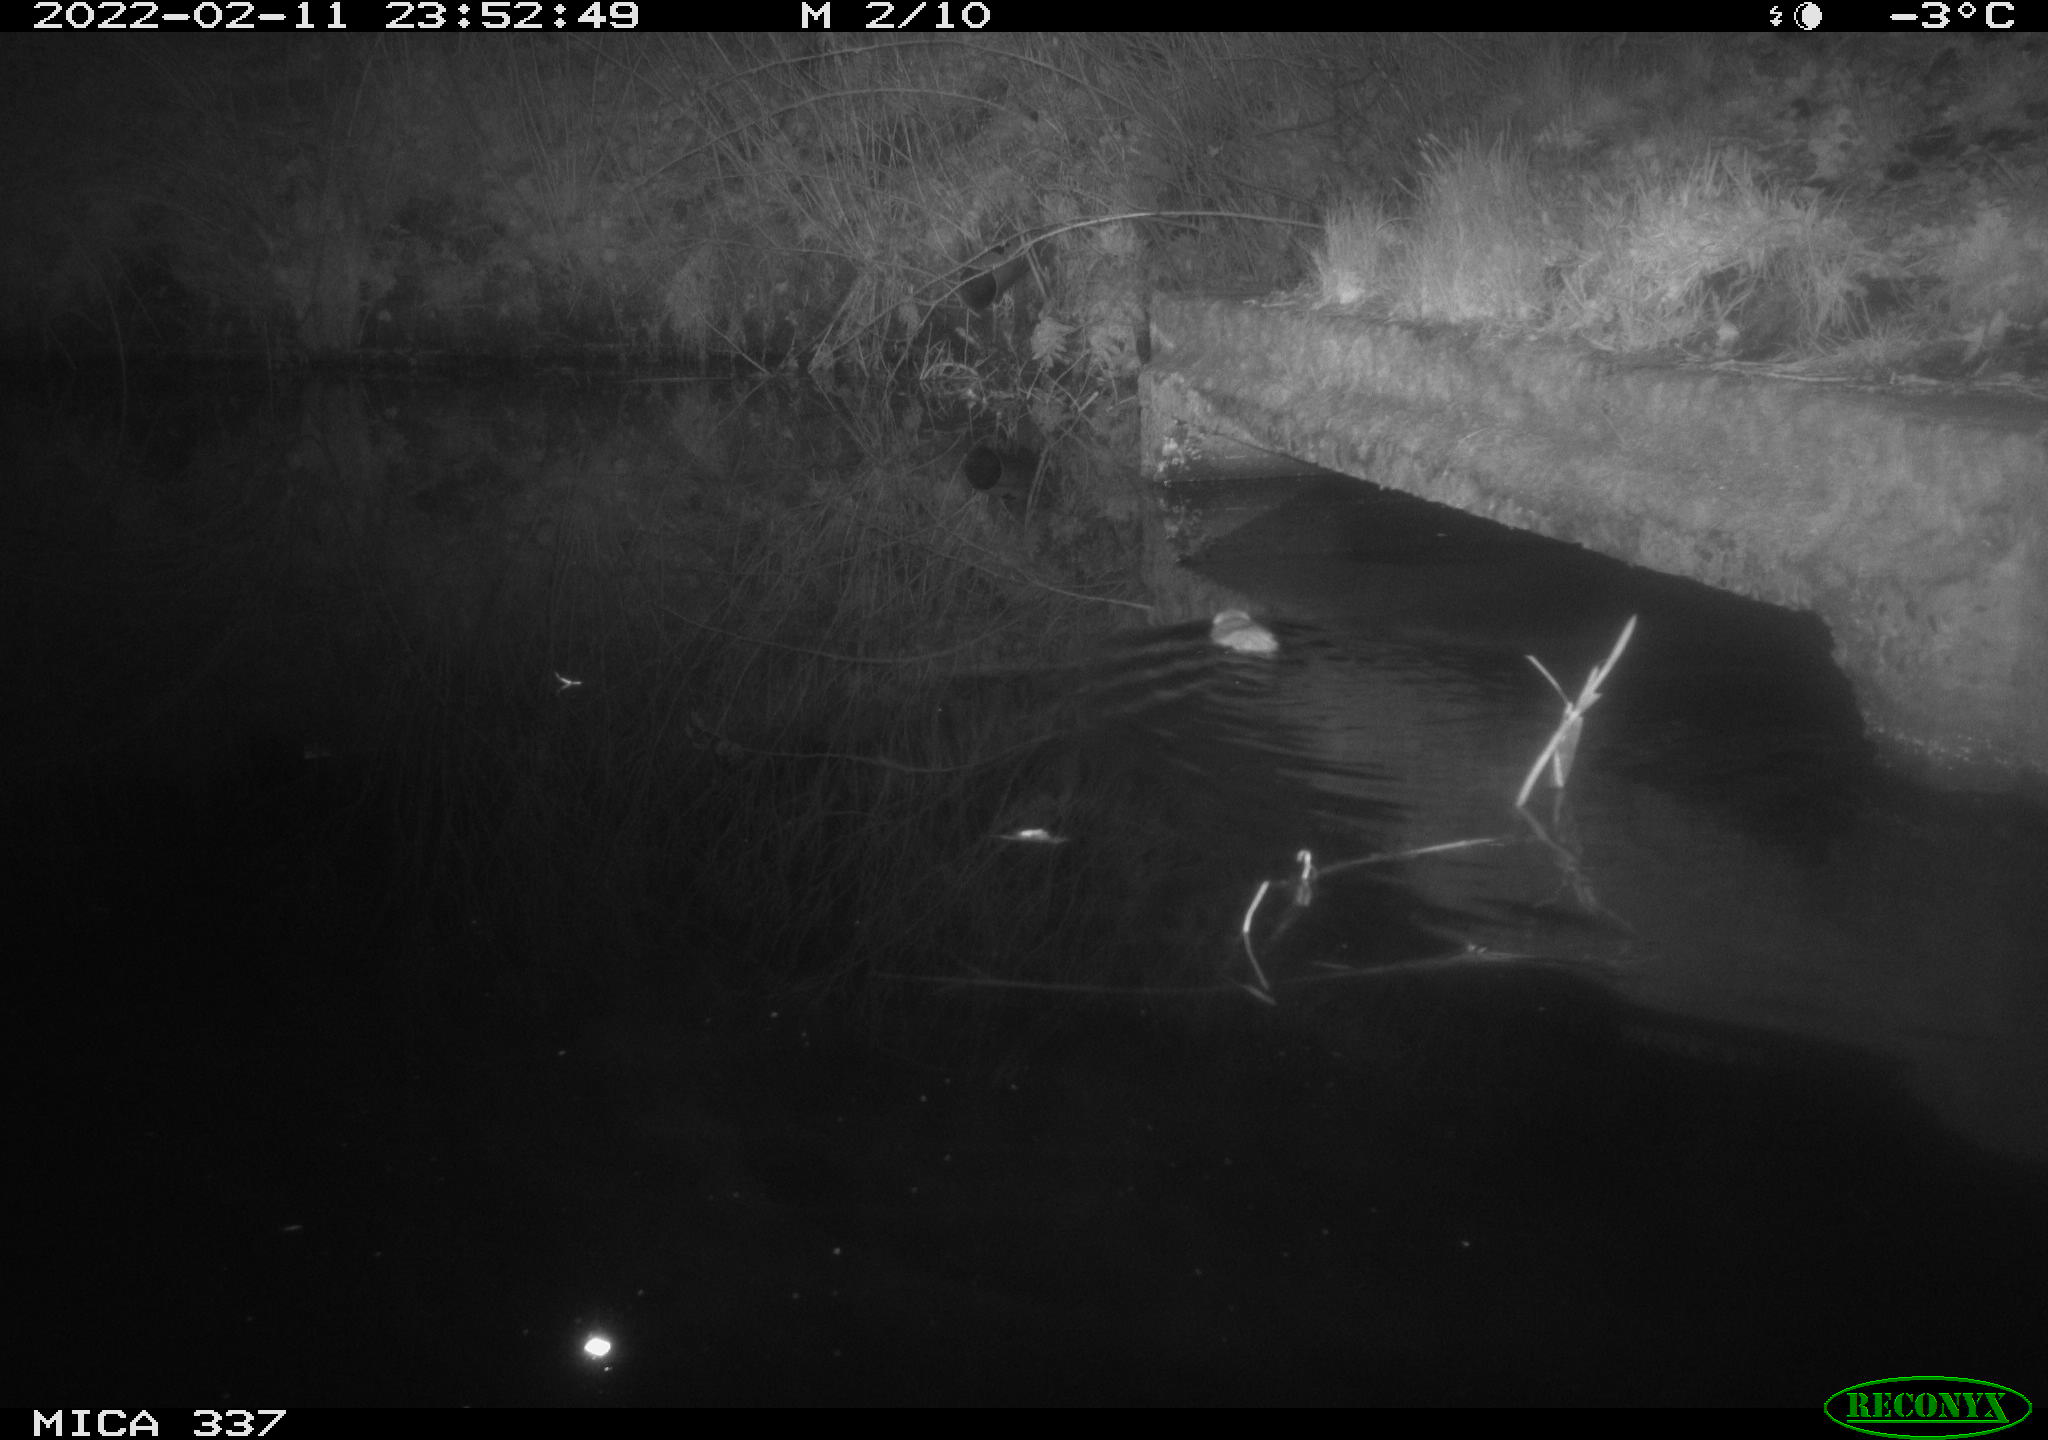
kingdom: Animalia
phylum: Chordata
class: Mammalia
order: Rodentia
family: Muridae
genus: Rattus
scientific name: Rattus norvegicus
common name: Brown rat
